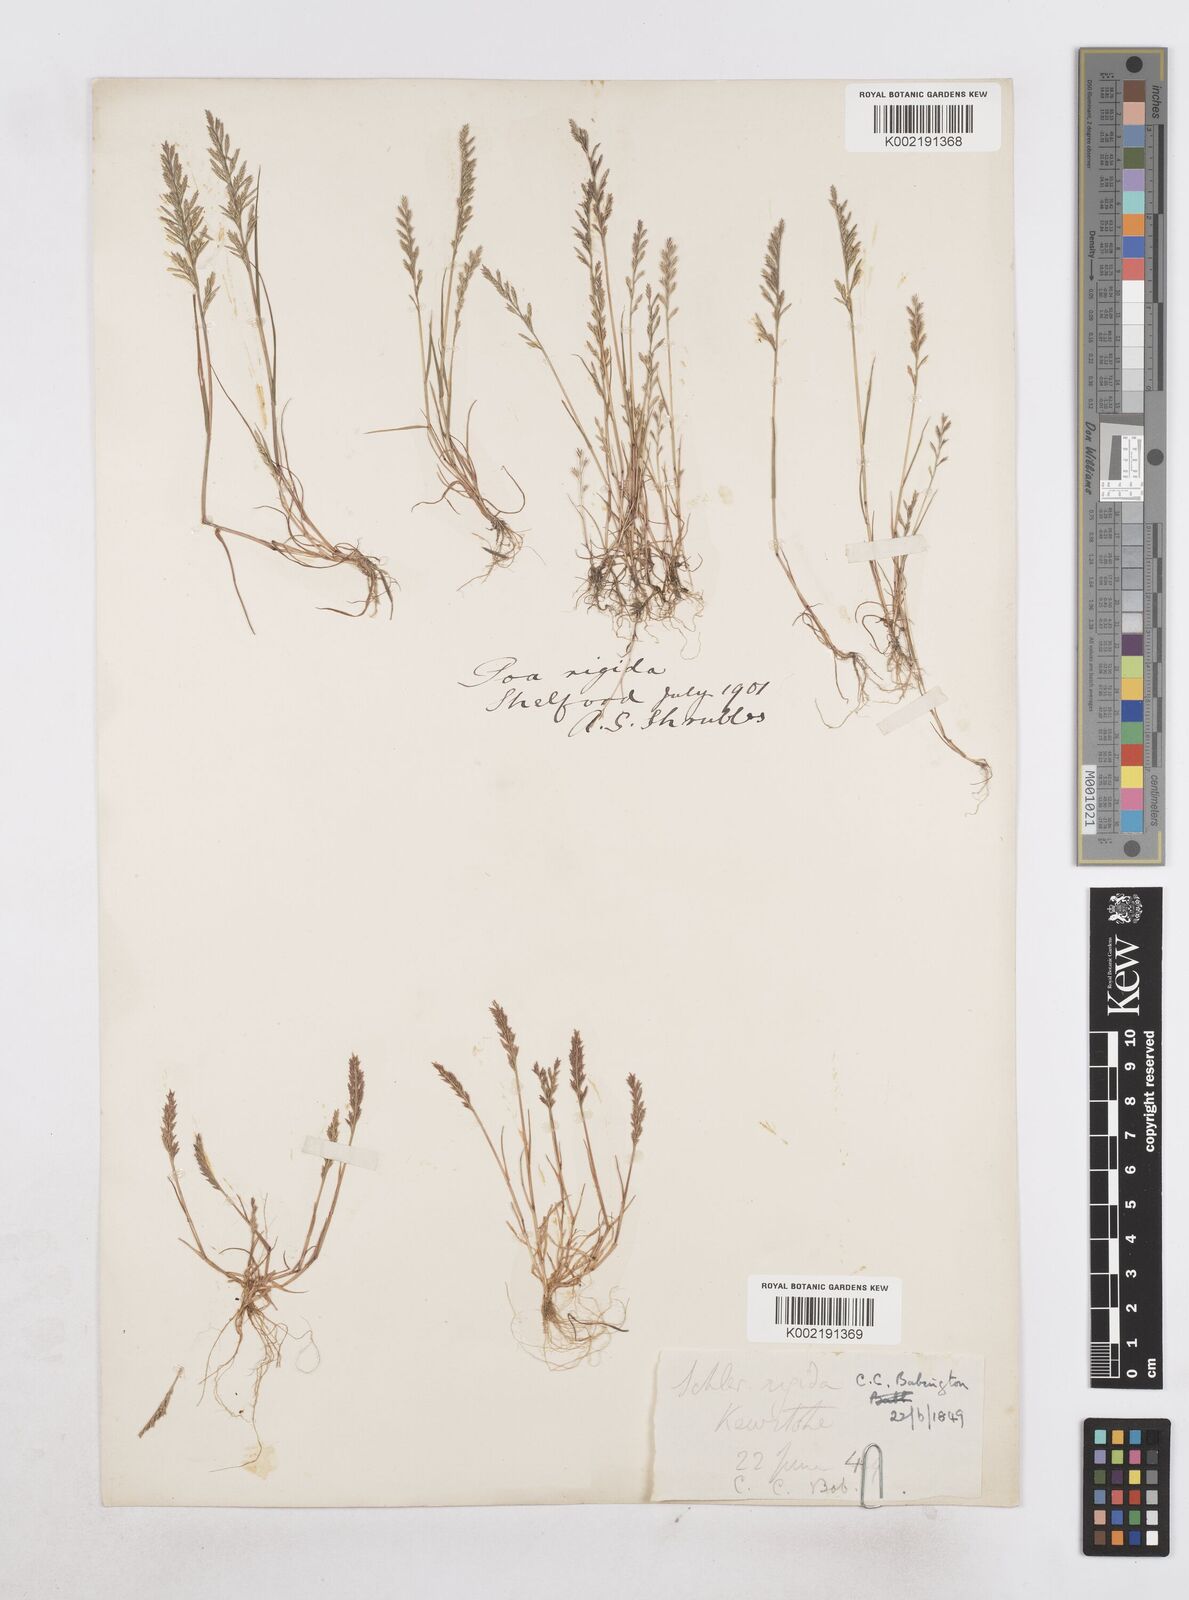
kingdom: Plantae
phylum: Tracheophyta
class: Liliopsida
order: Poales
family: Poaceae
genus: Catapodium
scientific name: Catapodium rigidum
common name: Fern-grass
